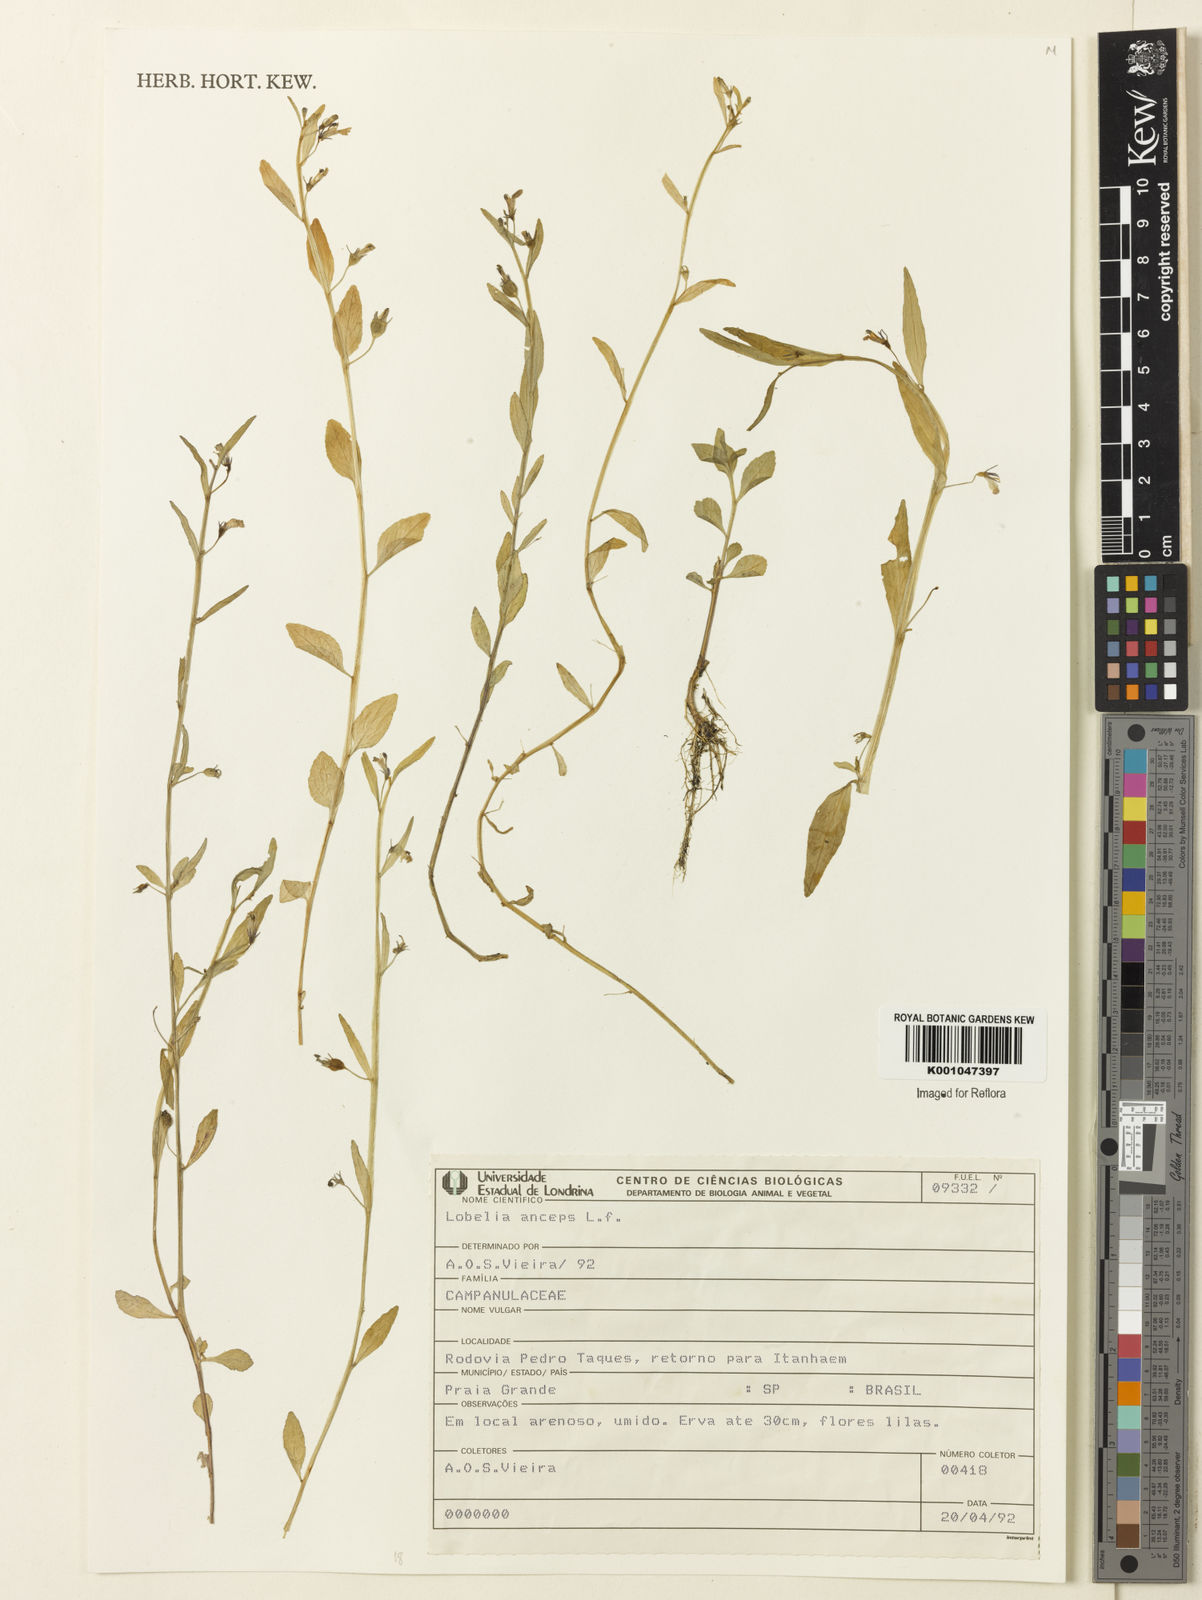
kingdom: Plantae
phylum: Tracheophyta
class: Magnoliopsida
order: Asterales
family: Campanulaceae
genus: Lobelia
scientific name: Lobelia anceps
